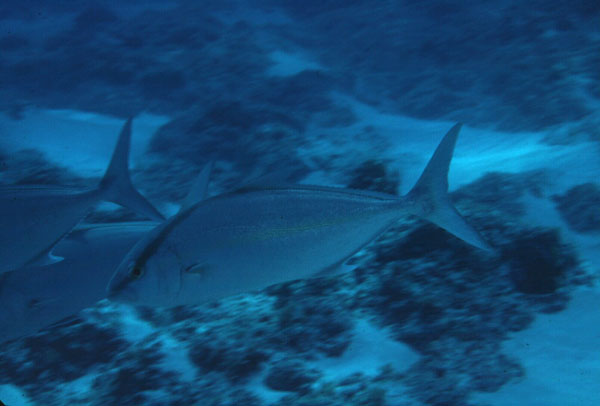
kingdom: Animalia
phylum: Chordata
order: Perciformes
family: Carangidae
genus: Seriola
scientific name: Seriola rivoliana
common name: Almaco jack
